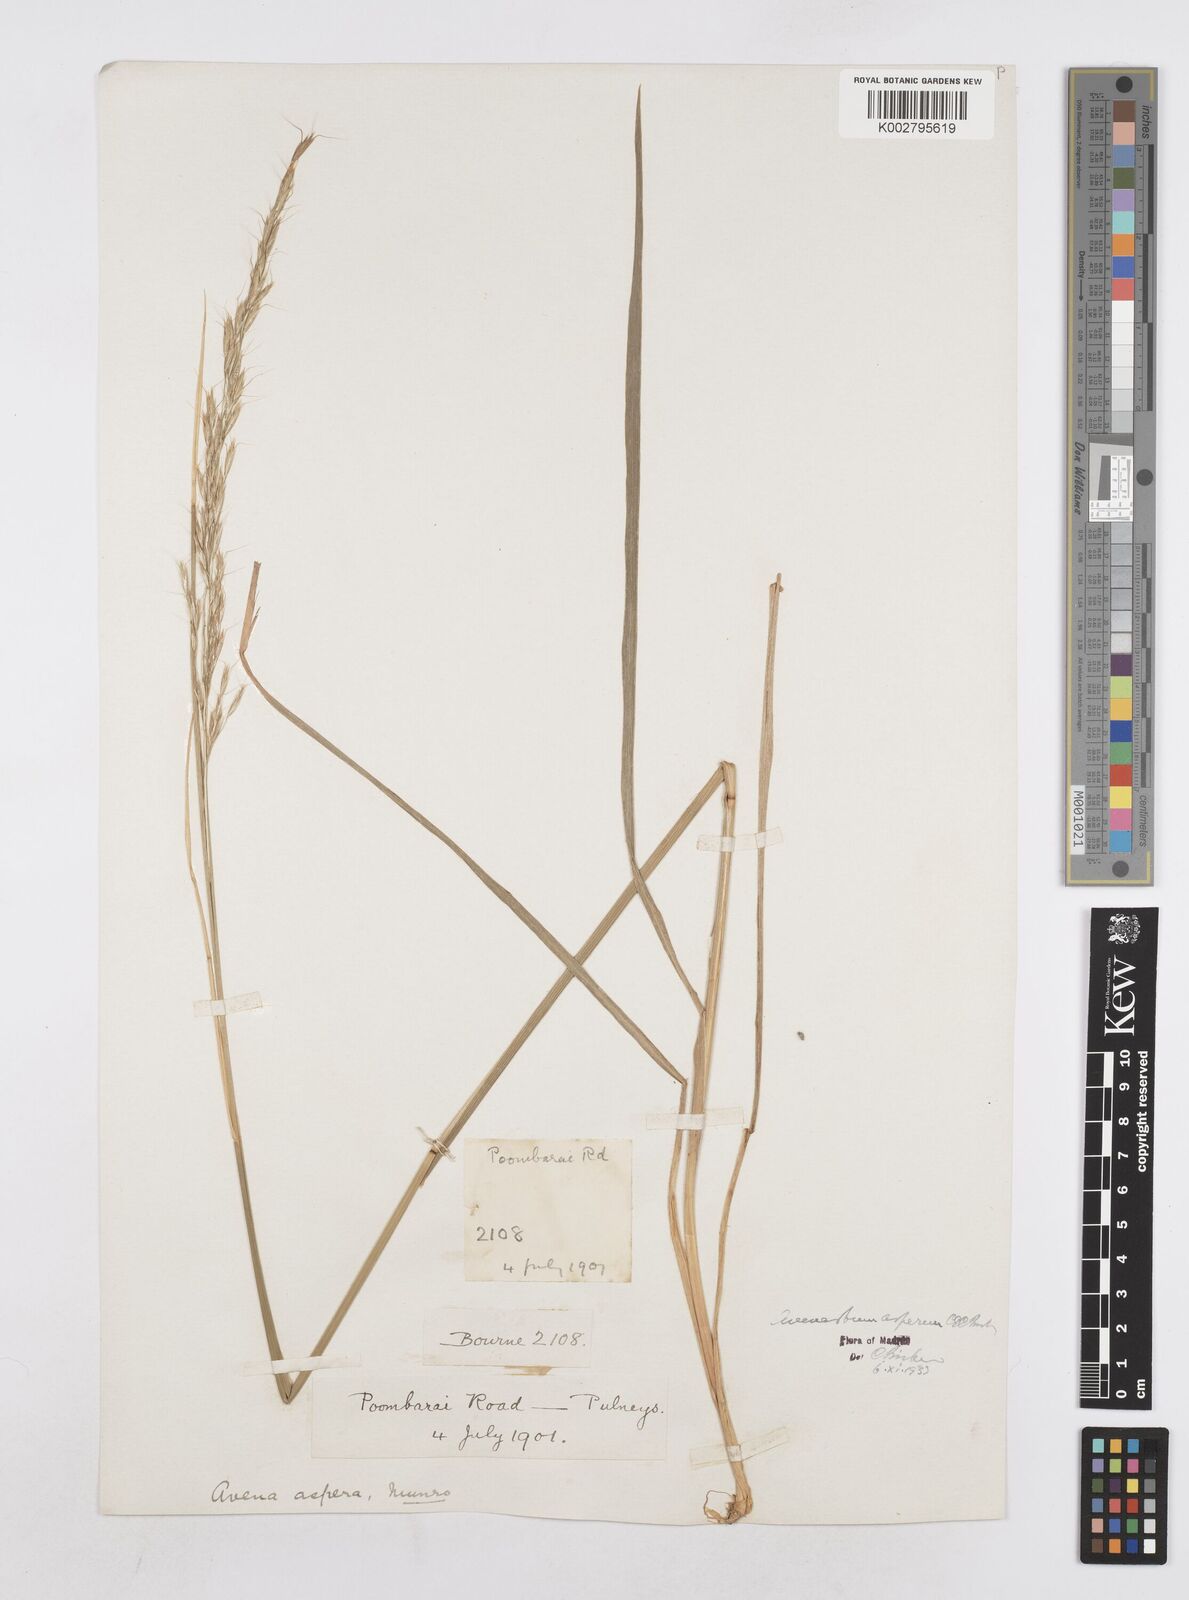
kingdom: Plantae
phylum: Tracheophyta
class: Liliopsida
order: Poales
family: Poaceae
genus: Helictotrichon
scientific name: Helictotrichon
